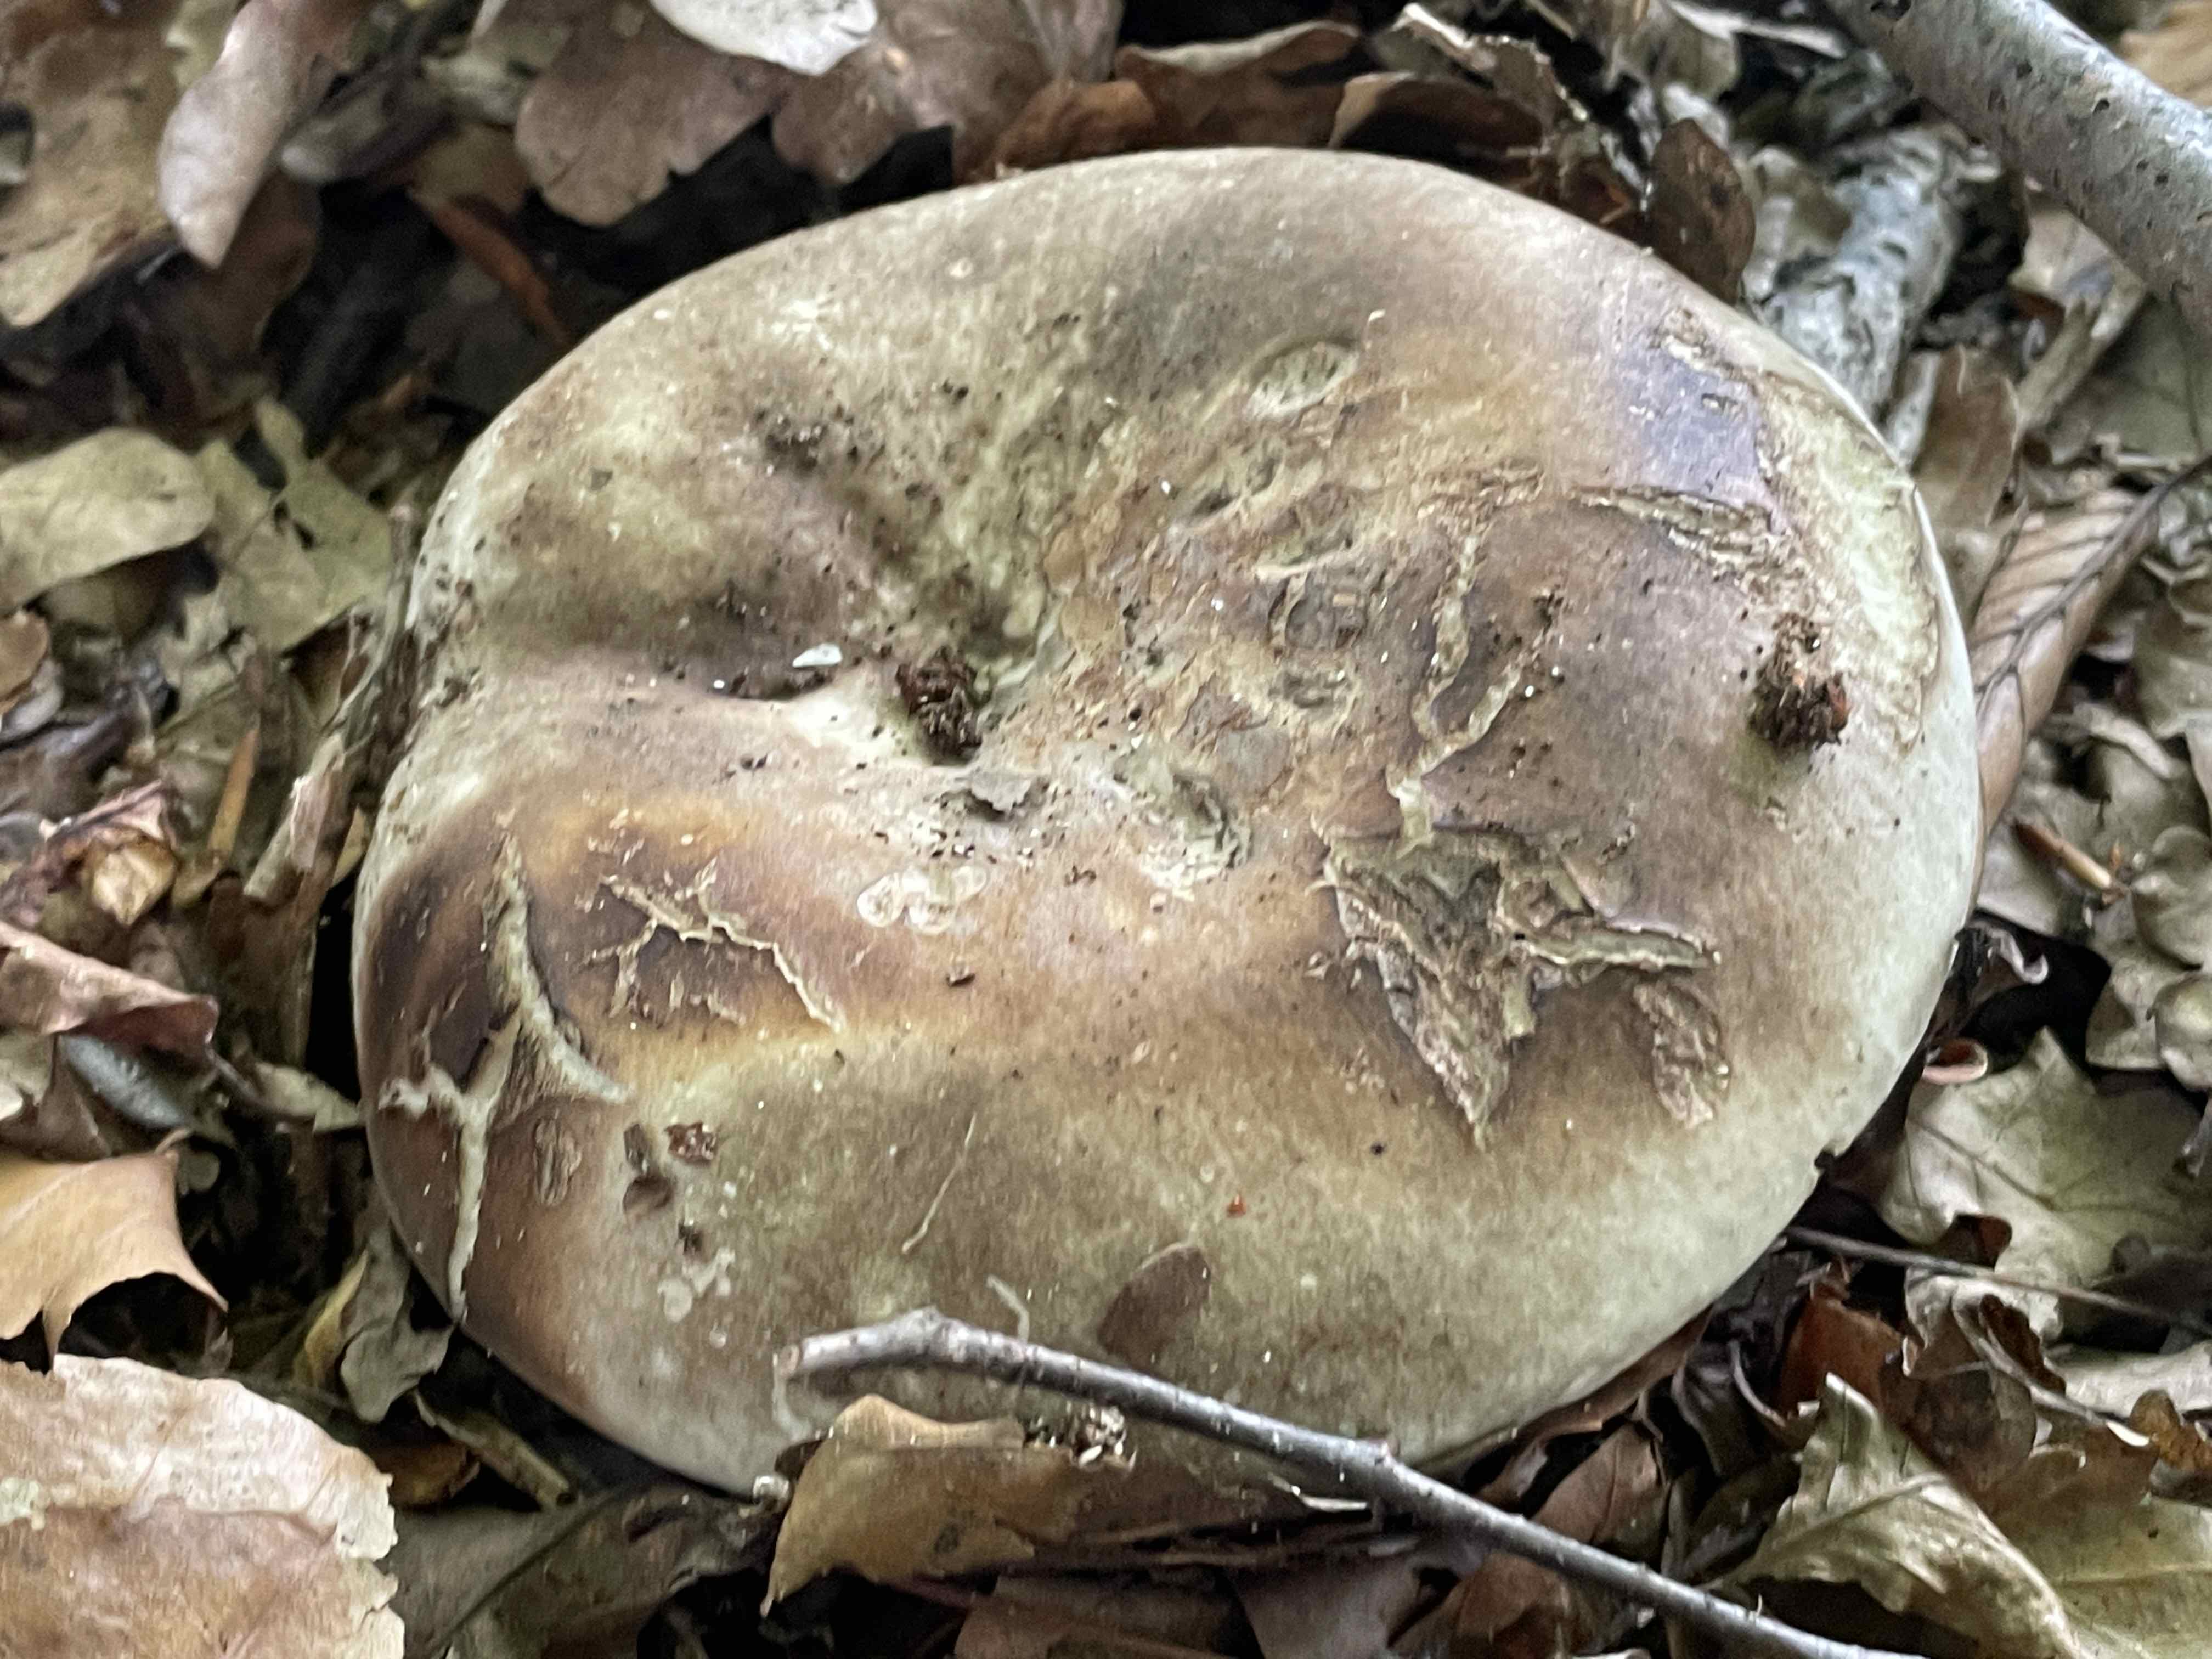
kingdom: Fungi
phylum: Basidiomycota
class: Agaricomycetes
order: Russulales
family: Russulaceae
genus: Russula
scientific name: Russula adusta
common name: sværtende skørhat
